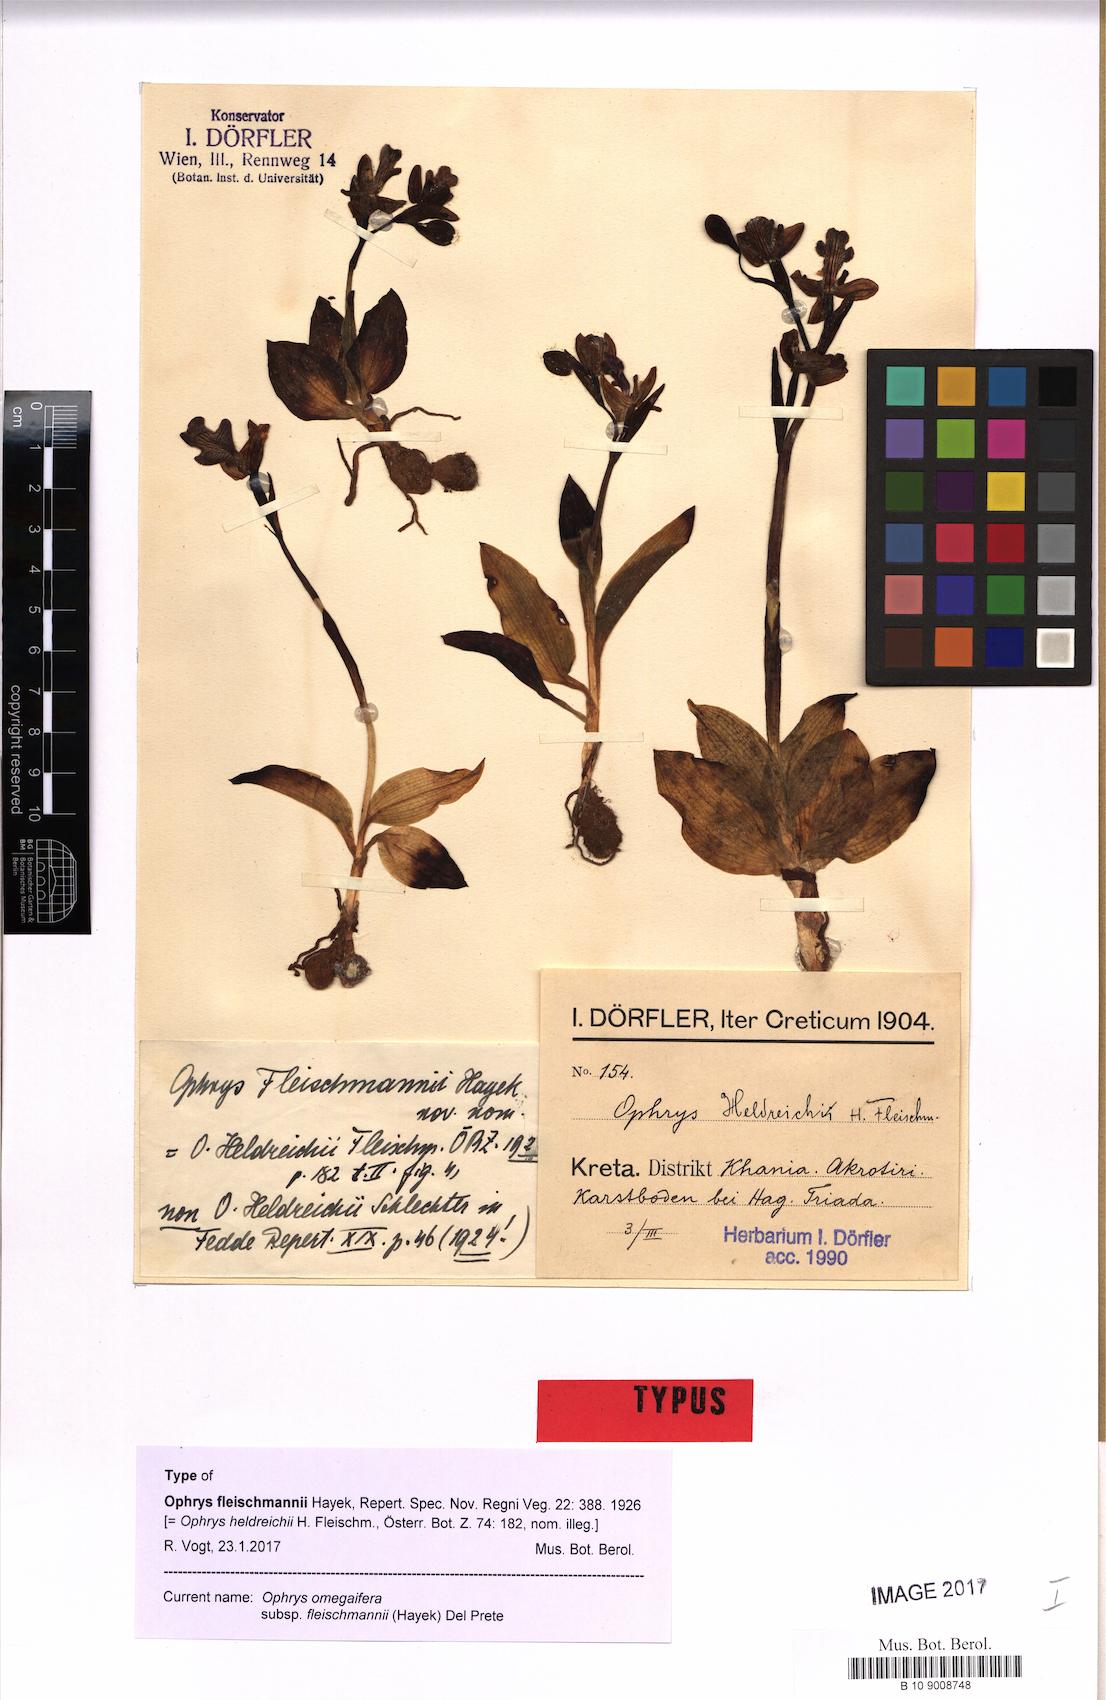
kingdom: Plantae
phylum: Tracheophyta
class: Liliopsida
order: Asparagales
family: Orchidaceae
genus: Ophrys
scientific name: Ophrys omegaifera
